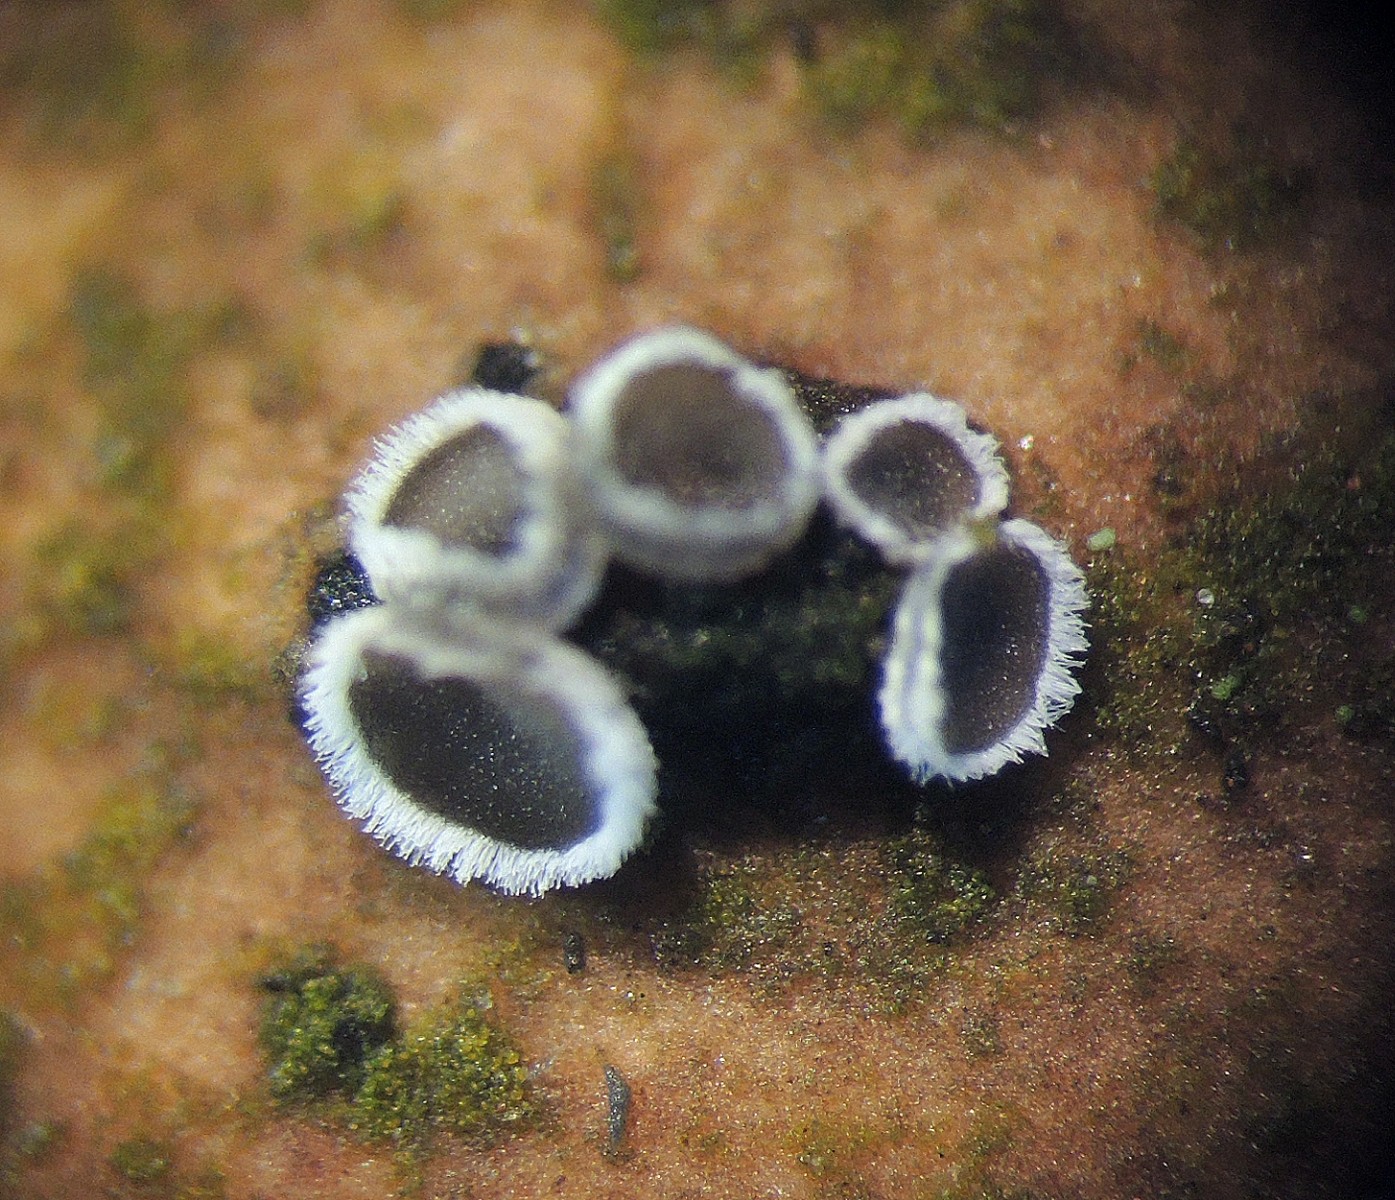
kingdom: Fungi
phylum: Basidiomycota
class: Agaricomycetes
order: Agaricales
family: Niaceae
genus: Lachnella
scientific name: Lachnella alboviolascens
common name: grå frynserede
